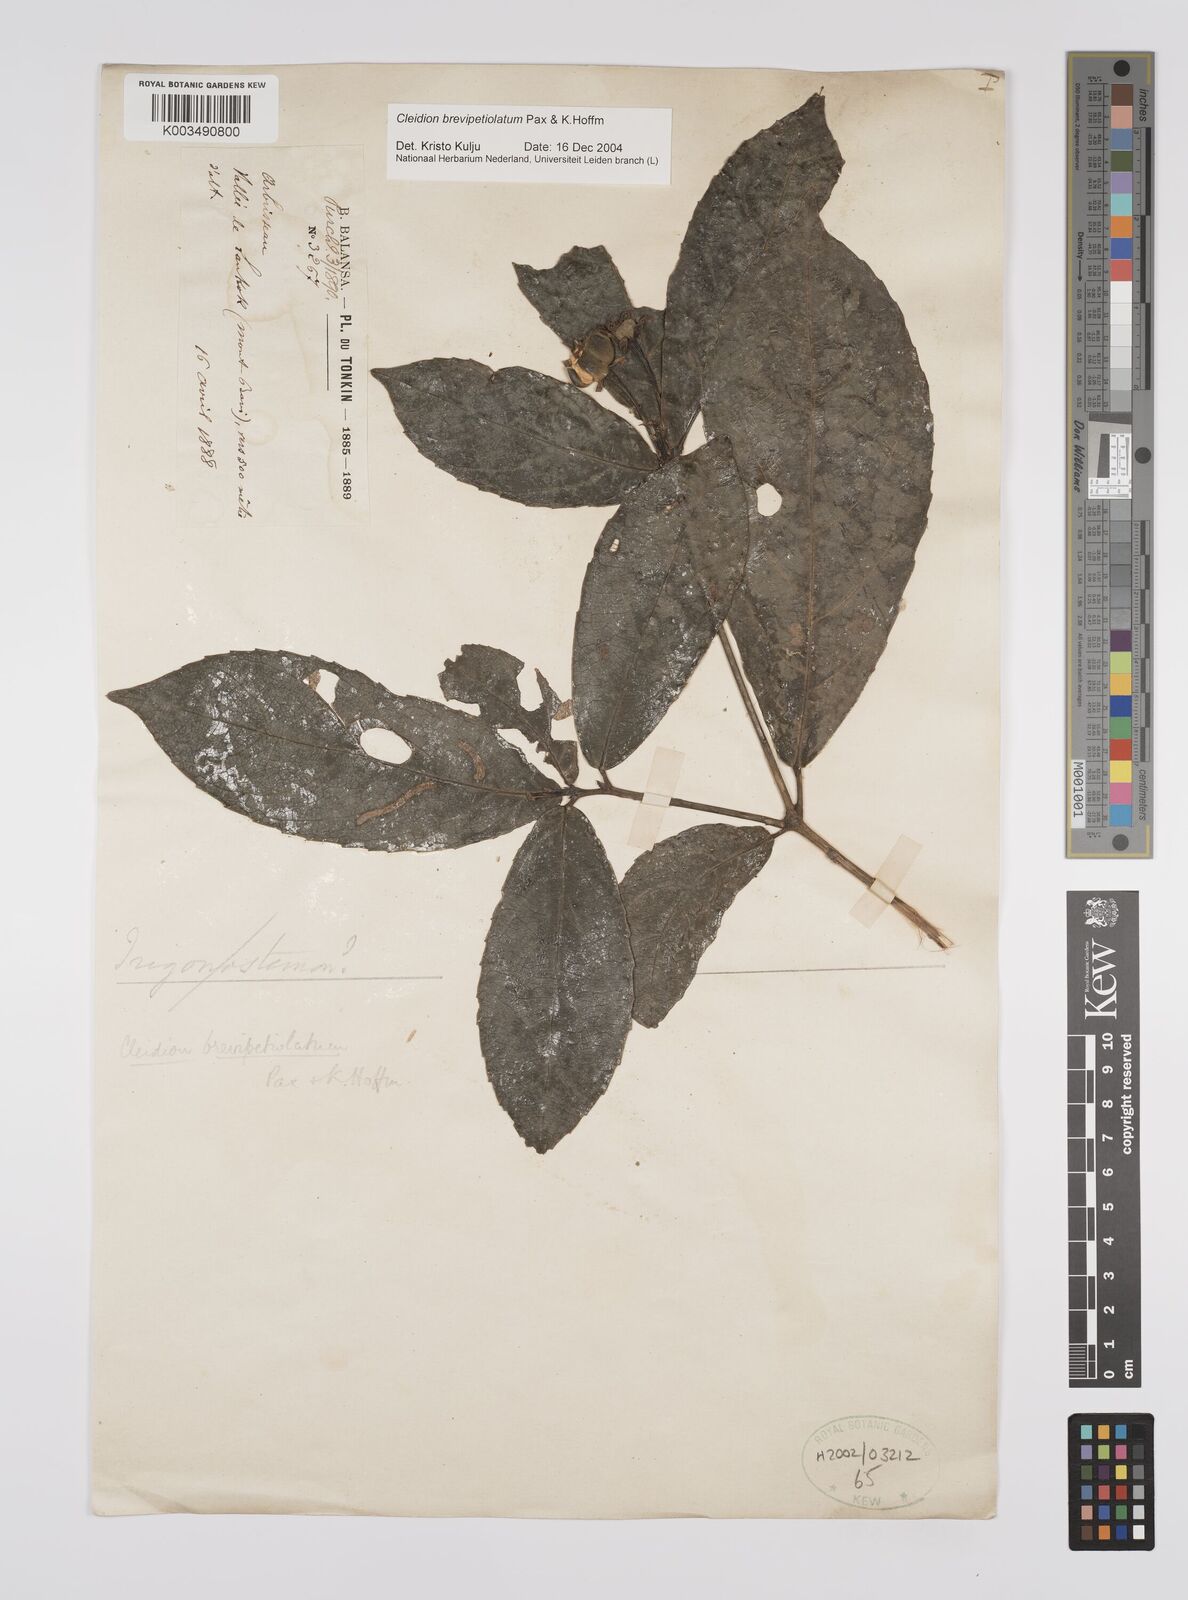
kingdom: Plantae
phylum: Tracheophyta
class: Magnoliopsida
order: Malpighiales
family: Euphorbiaceae
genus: Cleidion
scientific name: Cleidion brevipetiolatum
